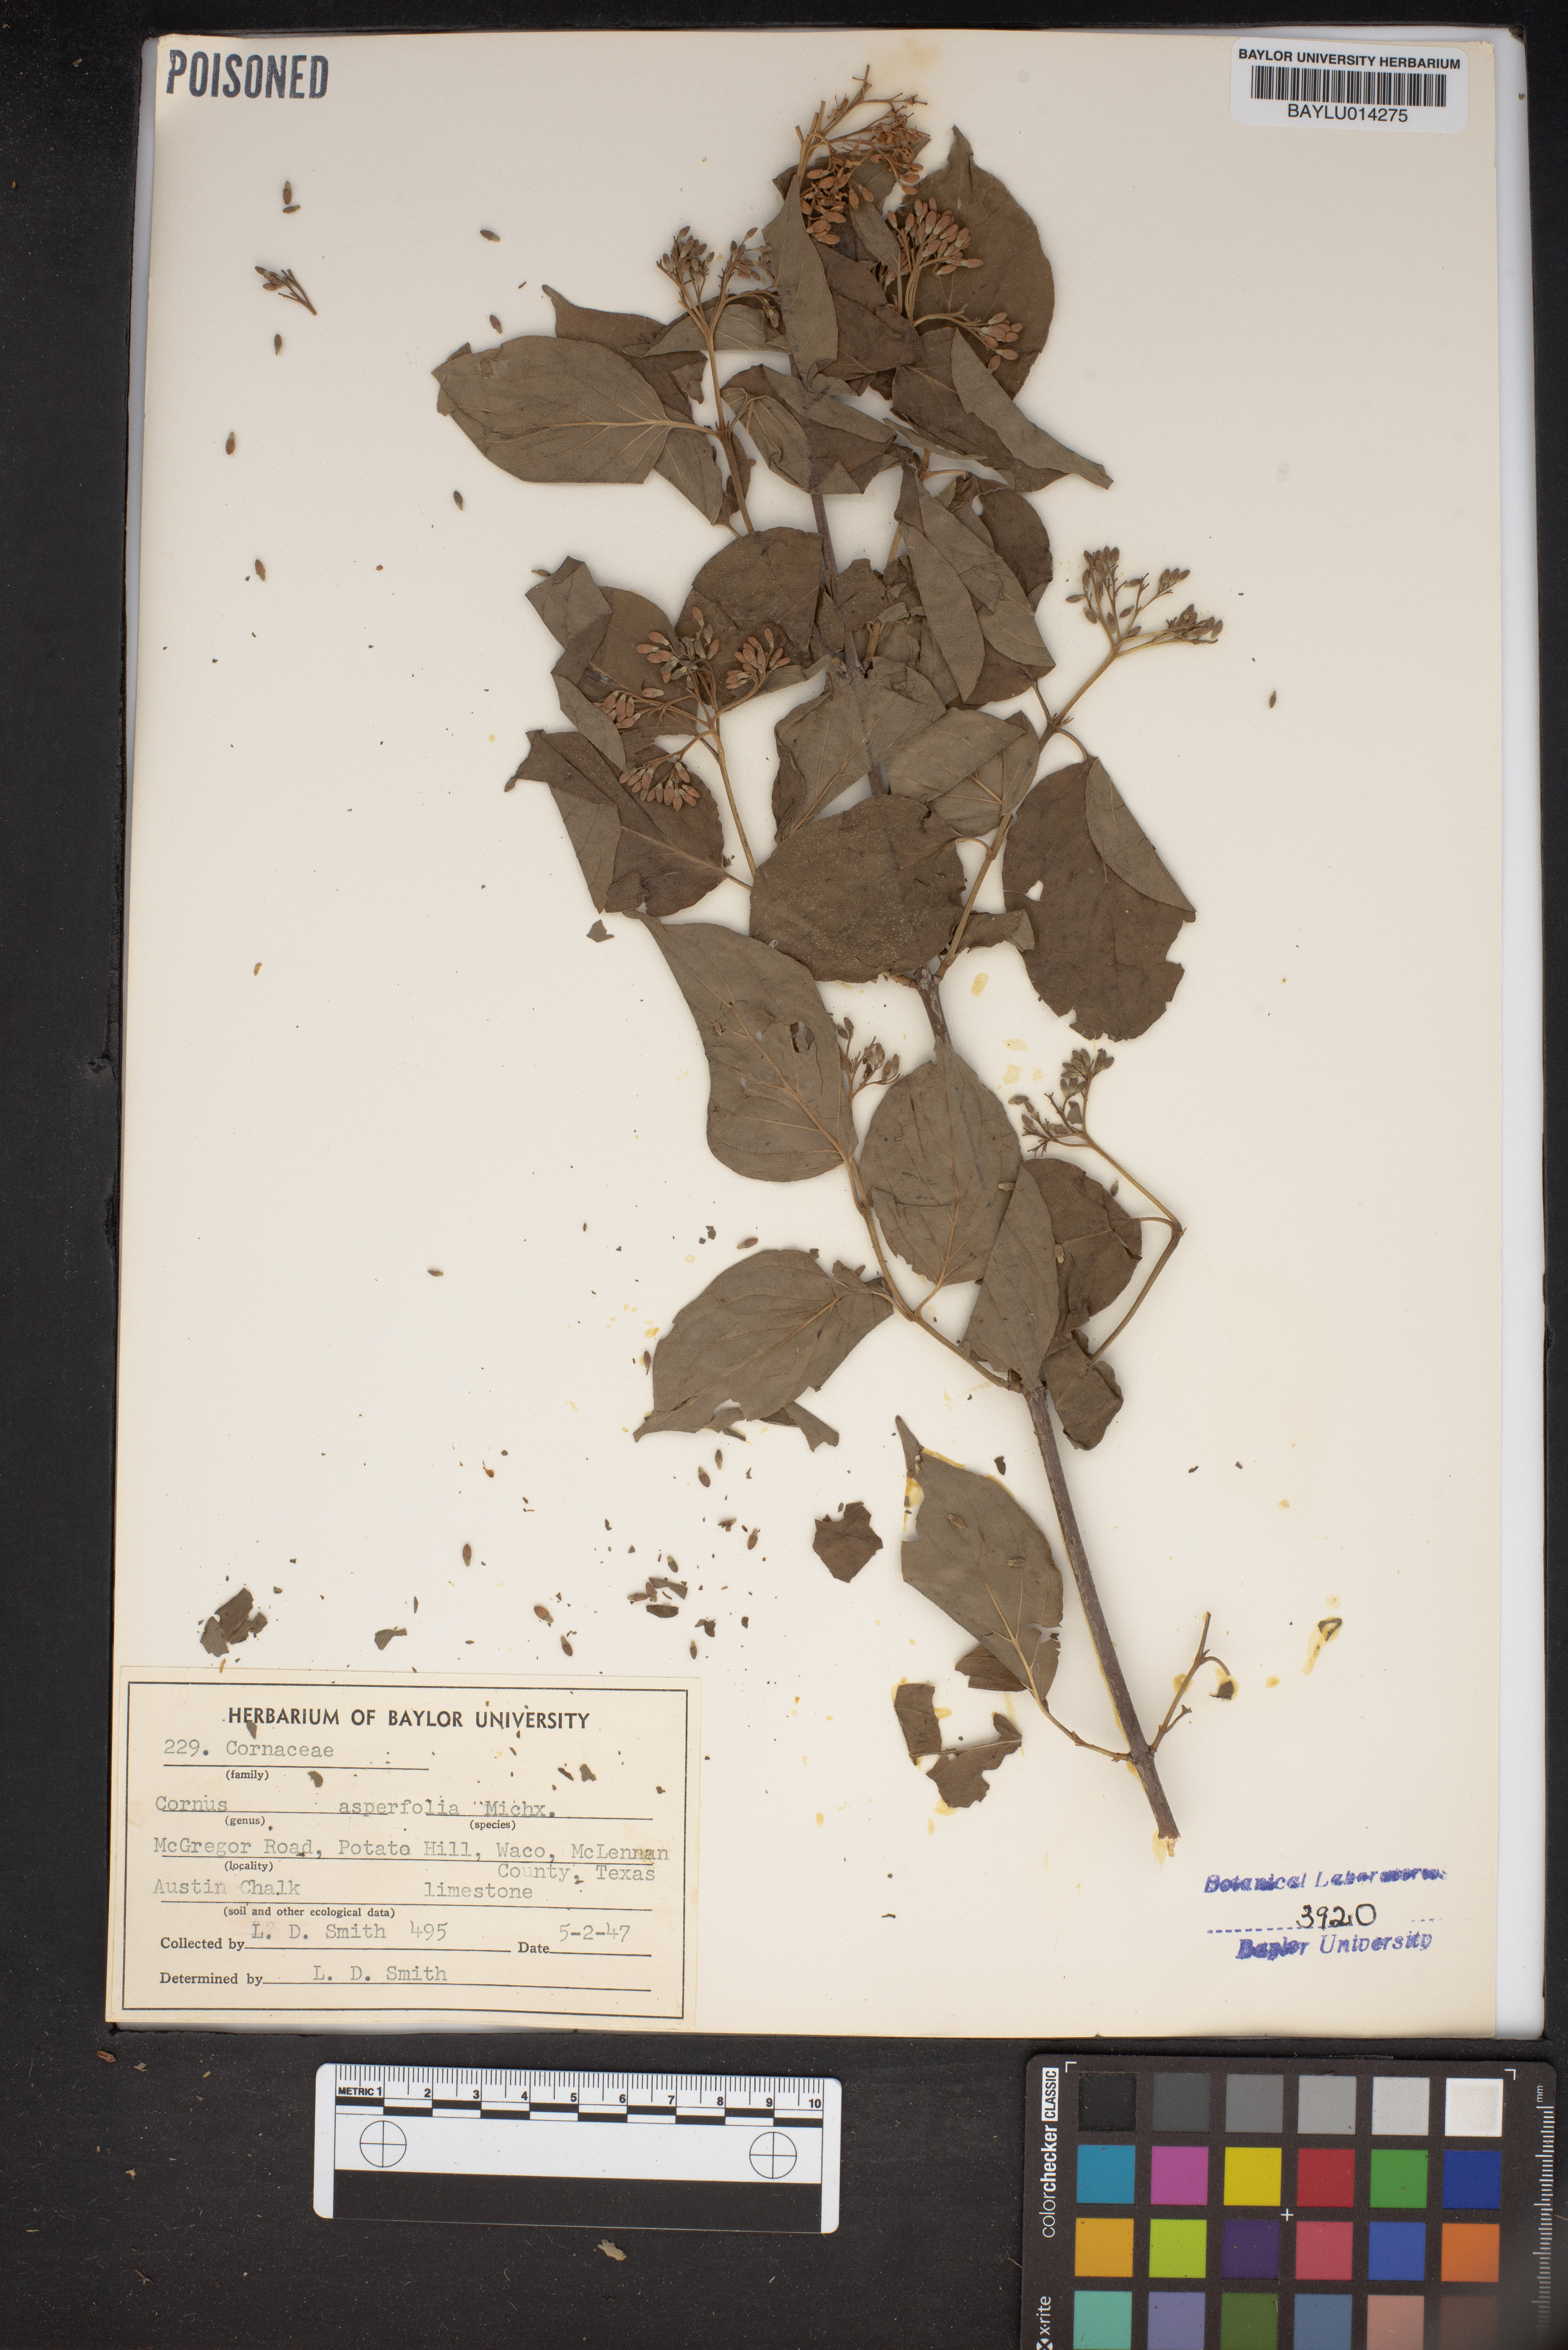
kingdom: Plantae
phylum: Tracheophyta
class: Magnoliopsida
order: Cornales
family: Cornaceae
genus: Cornus
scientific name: Cornus asperifolia
